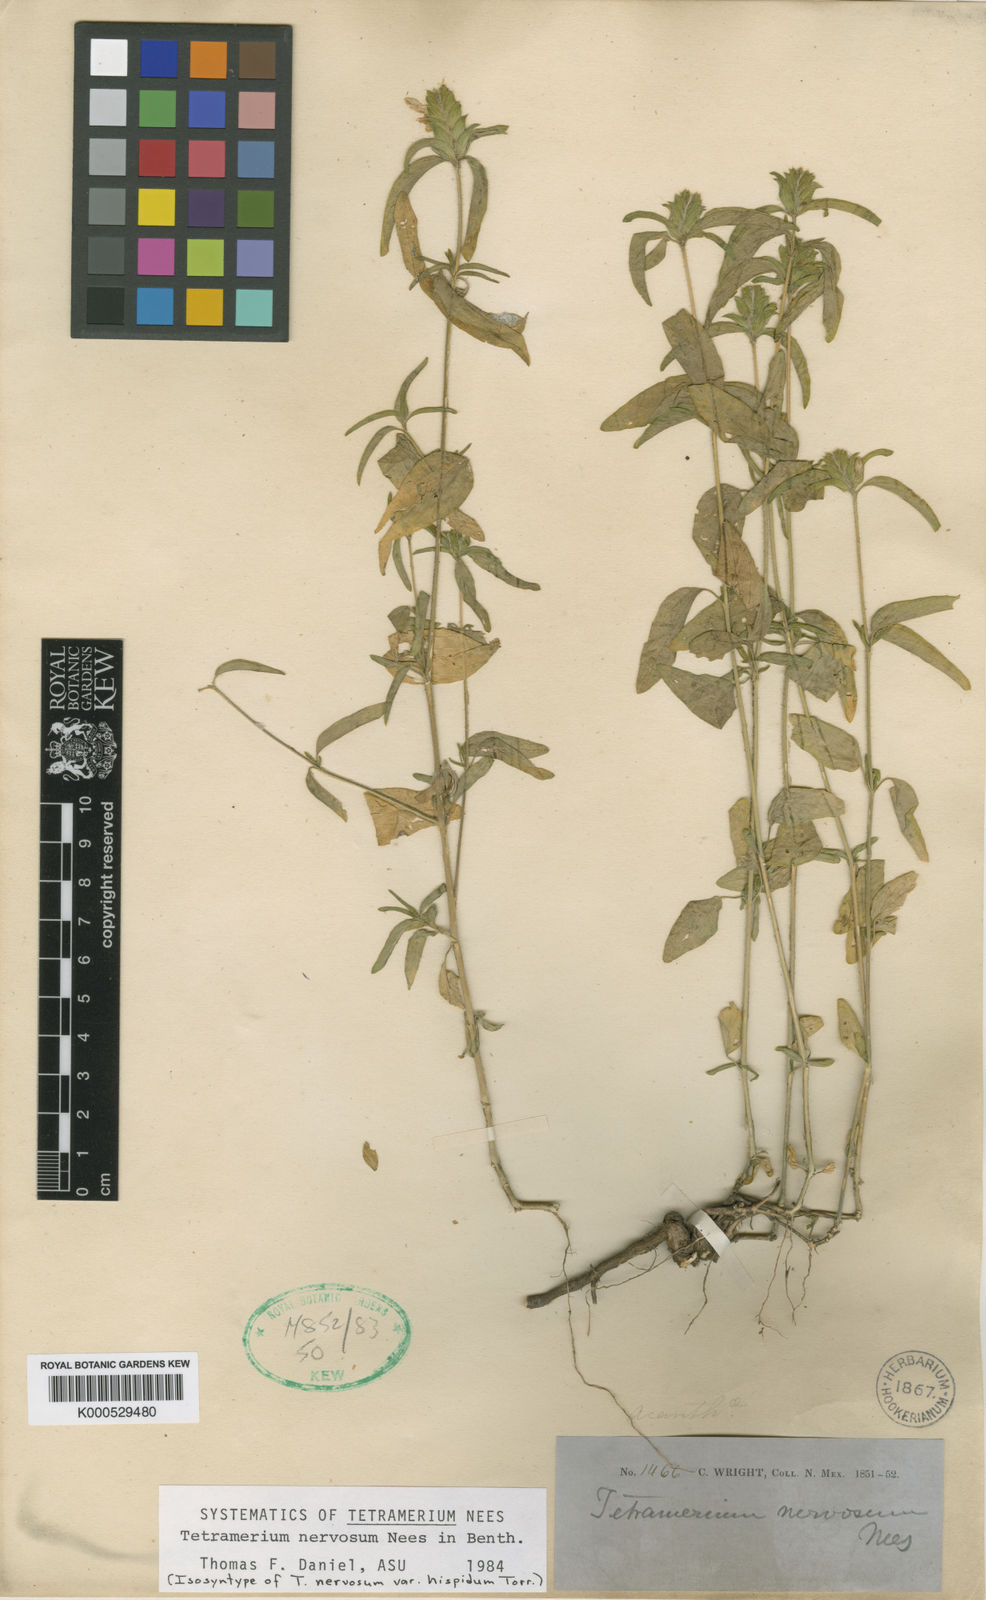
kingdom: Plantae
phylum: Tracheophyta
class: Magnoliopsida
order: Lamiales
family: Acanthaceae
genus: Tetramerium
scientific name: Tetramerium nervosum
